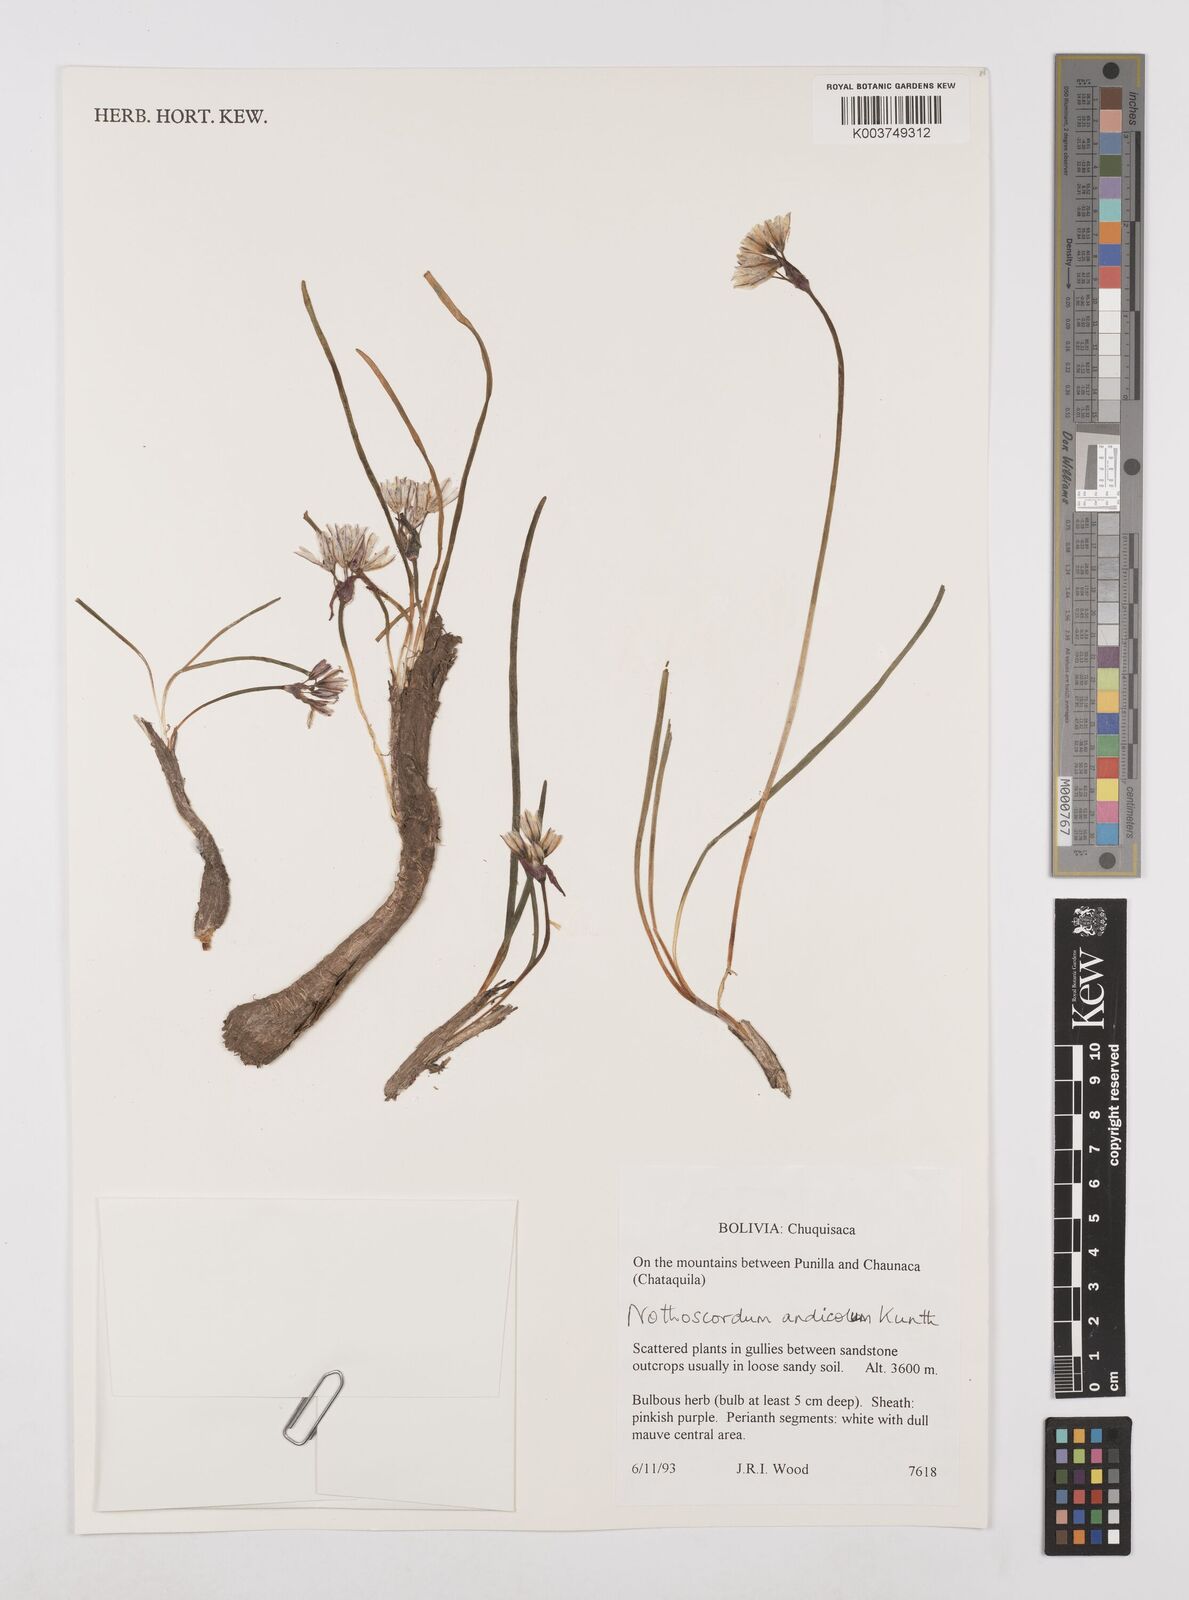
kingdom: Plantae
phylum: Tracheophyta
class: Liliopsida
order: Asparagales
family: Amaryllidaceae
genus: Nothoscordum
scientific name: Nothoscordum andicola
